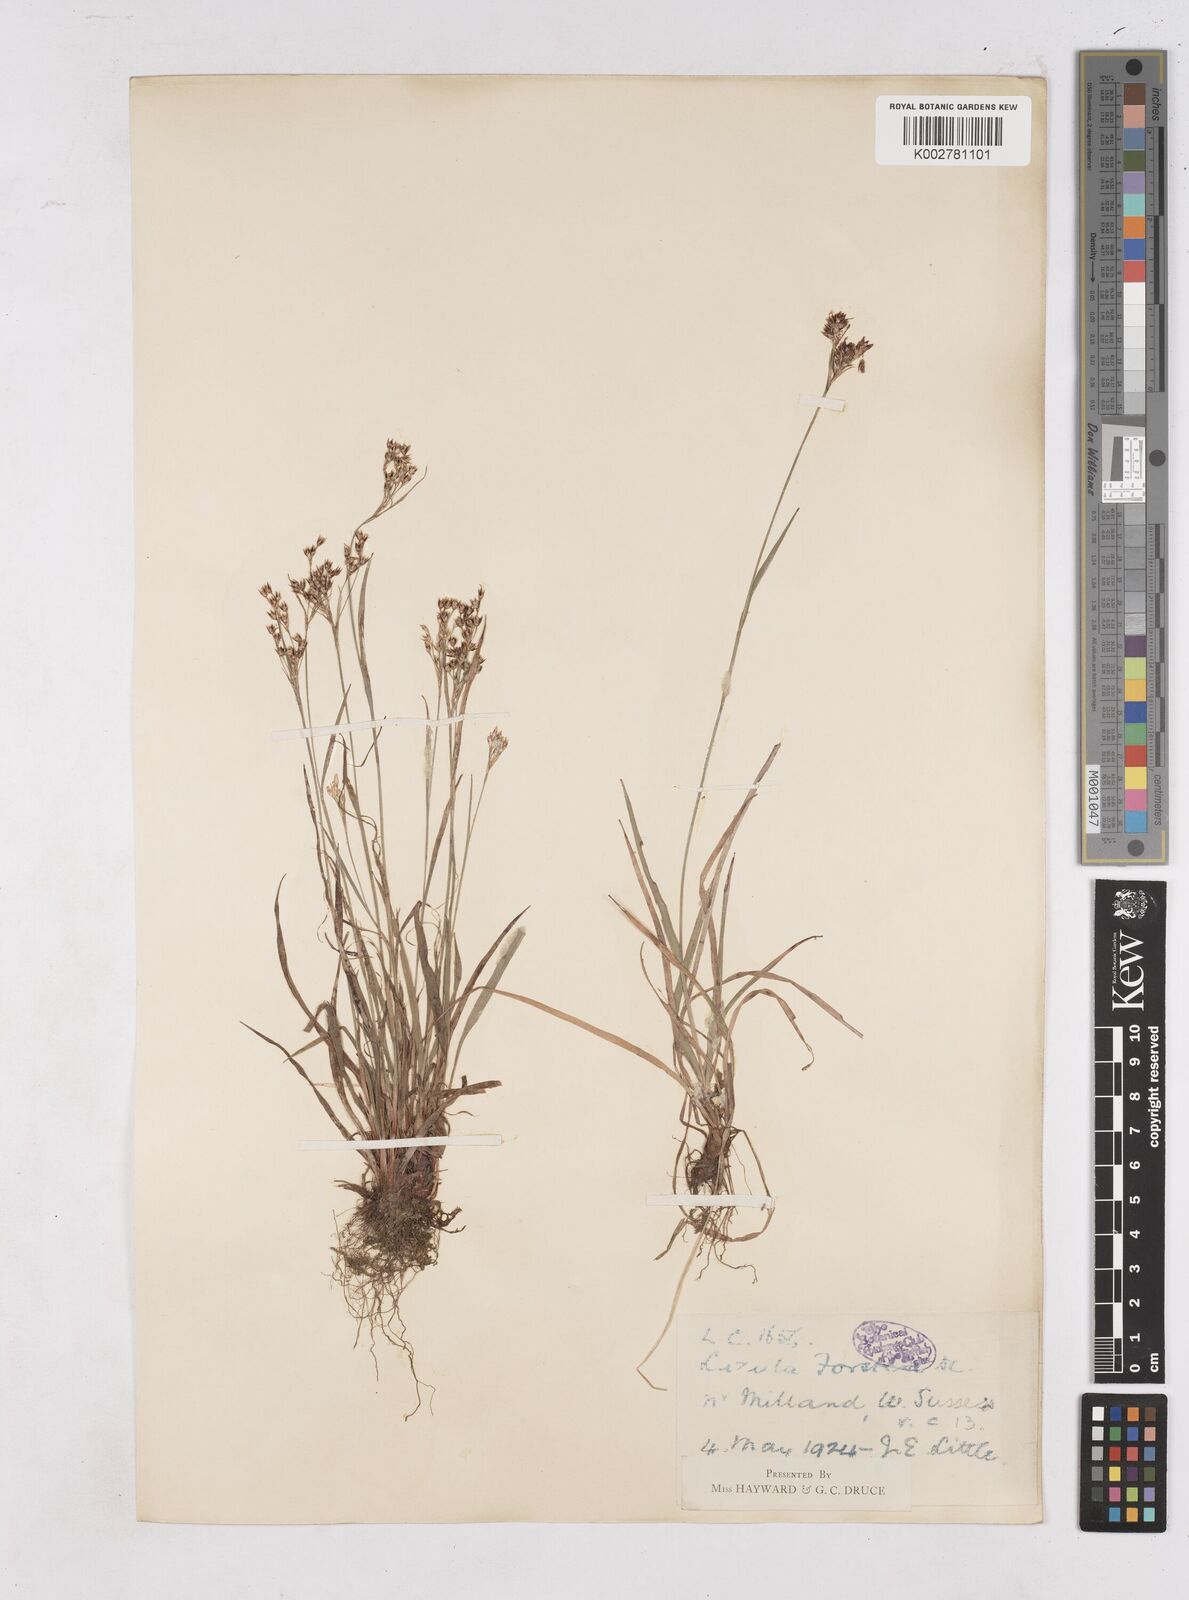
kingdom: Plantae
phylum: Tracheophyta
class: Liliopsida
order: Poales
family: Juncaceae
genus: Luzula
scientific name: Luzula forsteri
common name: Southern wood-rush
